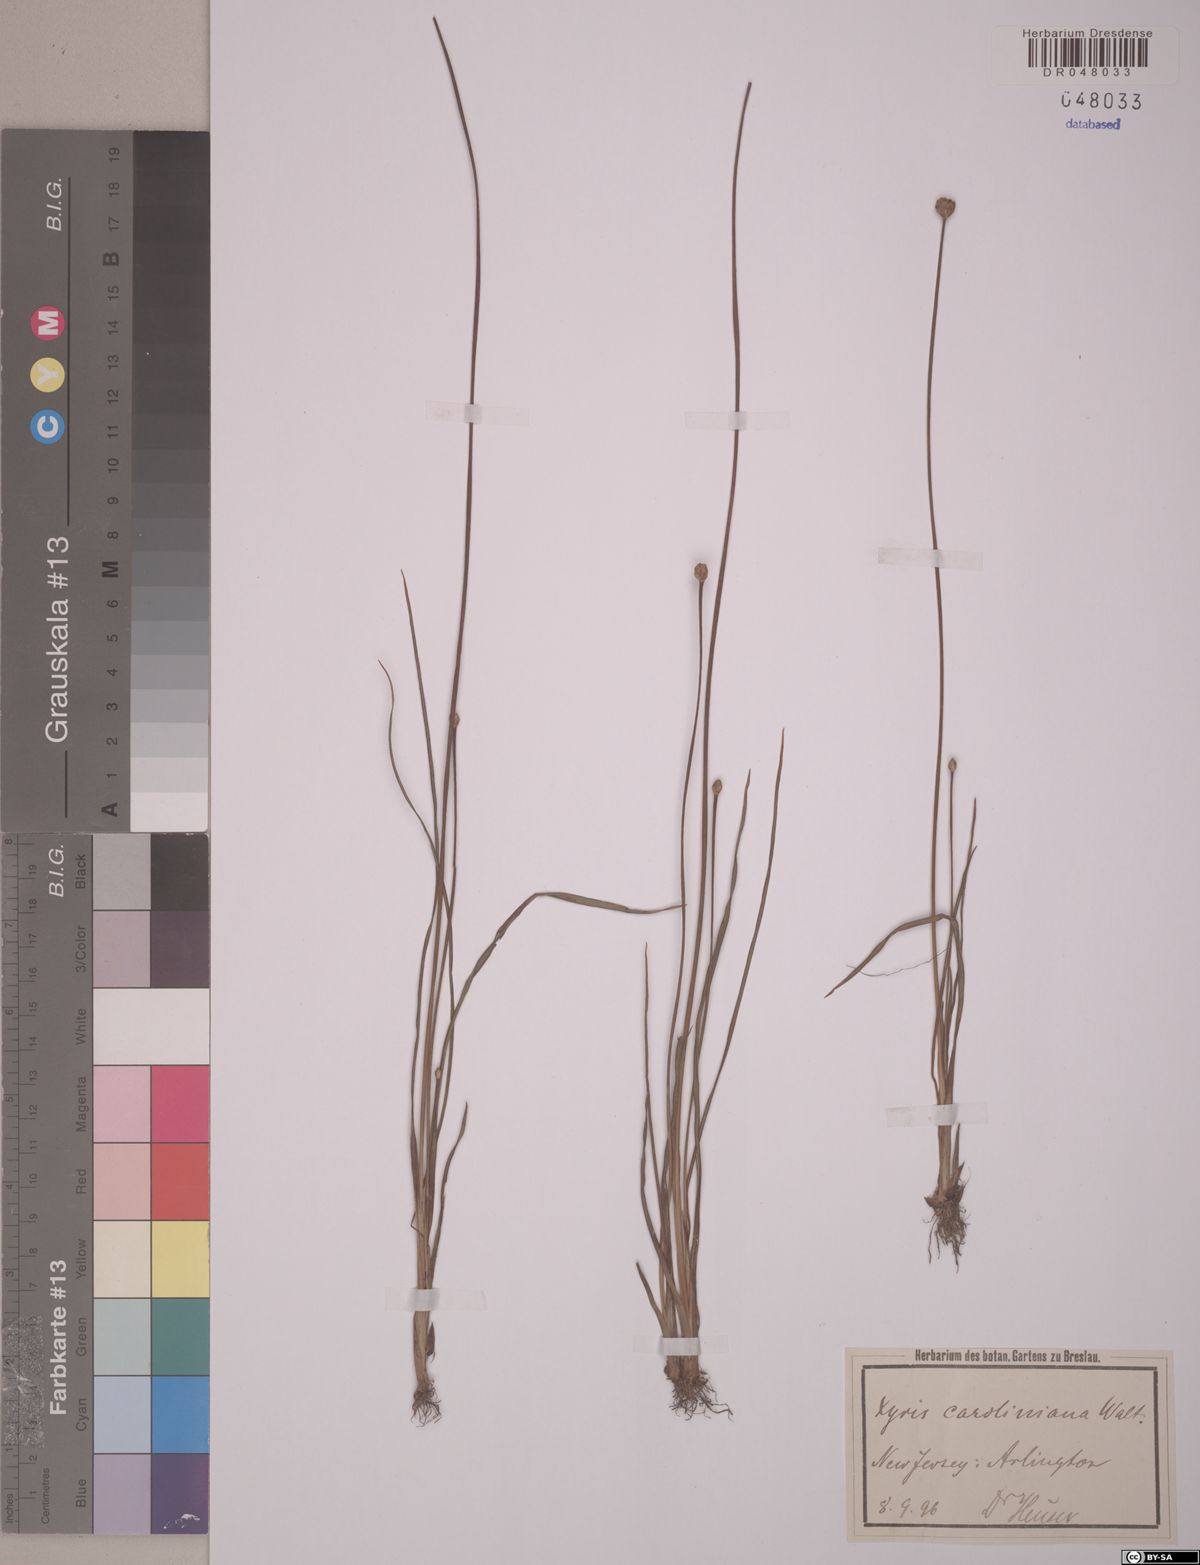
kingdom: Plantae
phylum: Tracheophyta
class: Liliopsida
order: Poales
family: Xyridaceae
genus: Xyris
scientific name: Xyris caroliniana
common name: Carolina yellow-eyed-grass
